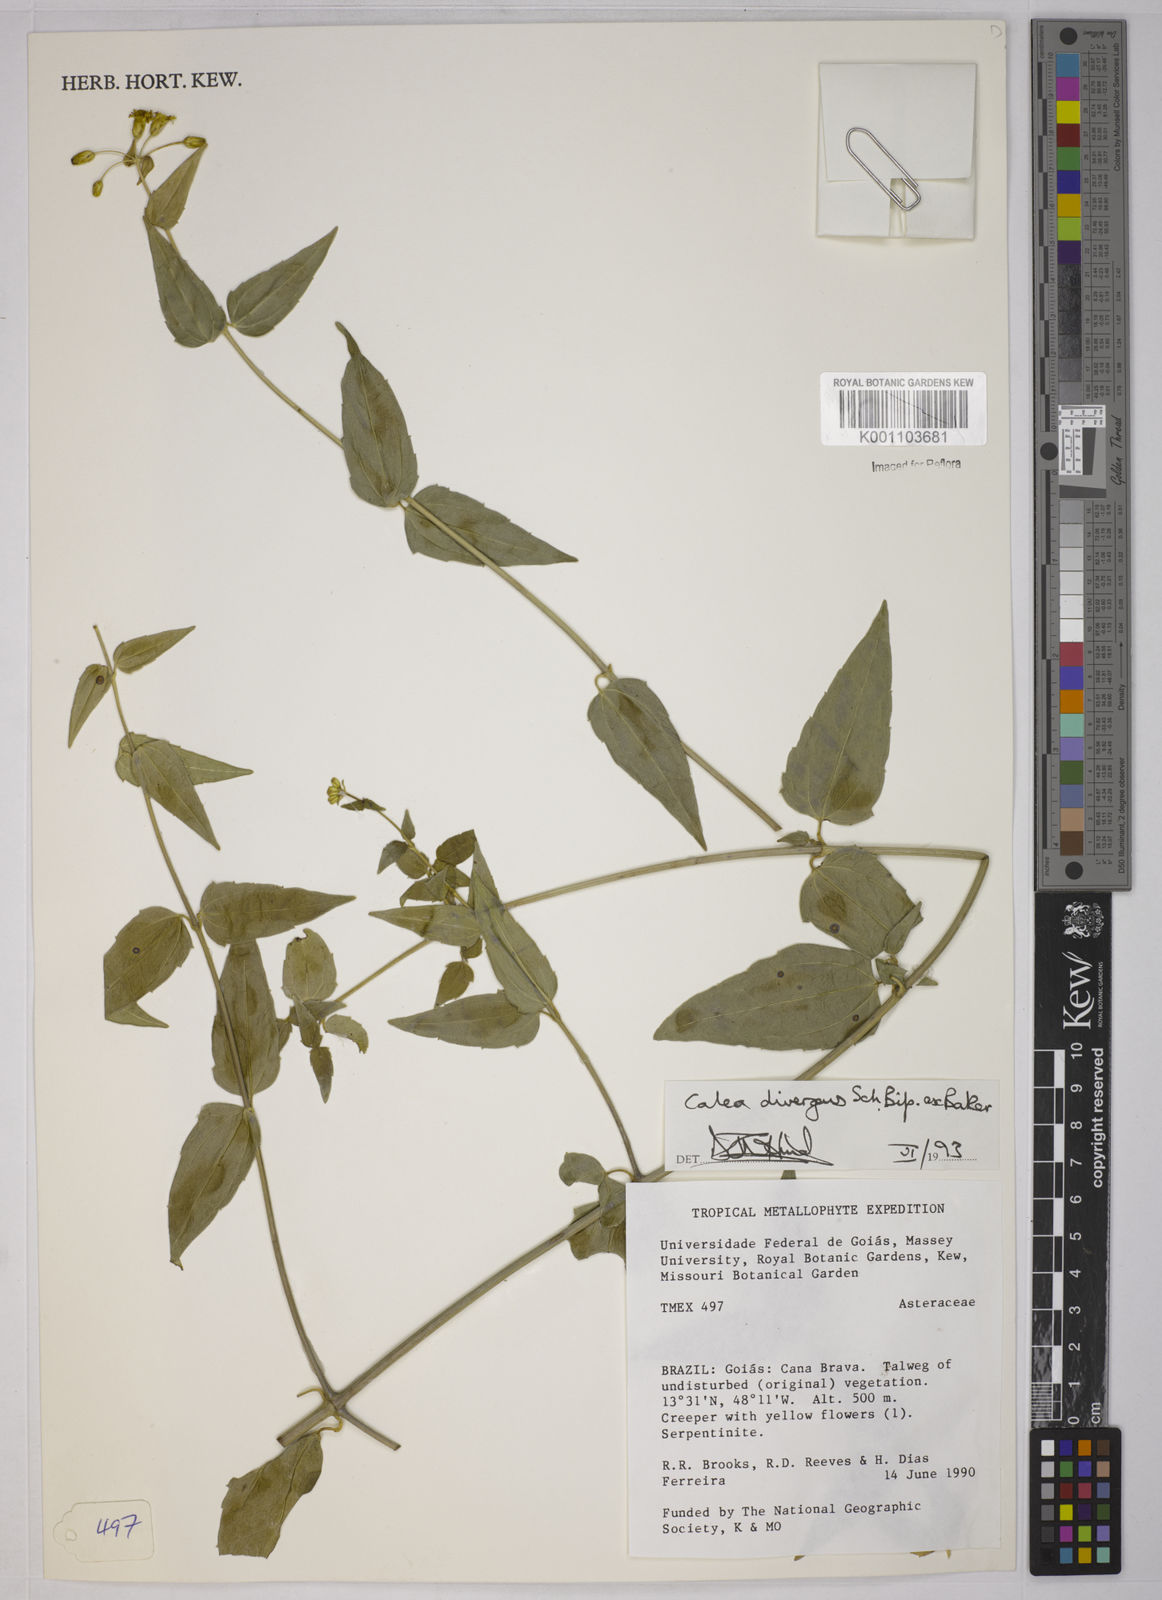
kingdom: Plantae
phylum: Tracheophyta
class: Magnoliopsida
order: Asterales
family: Asteraceae
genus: Calea
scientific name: Calea divergens
